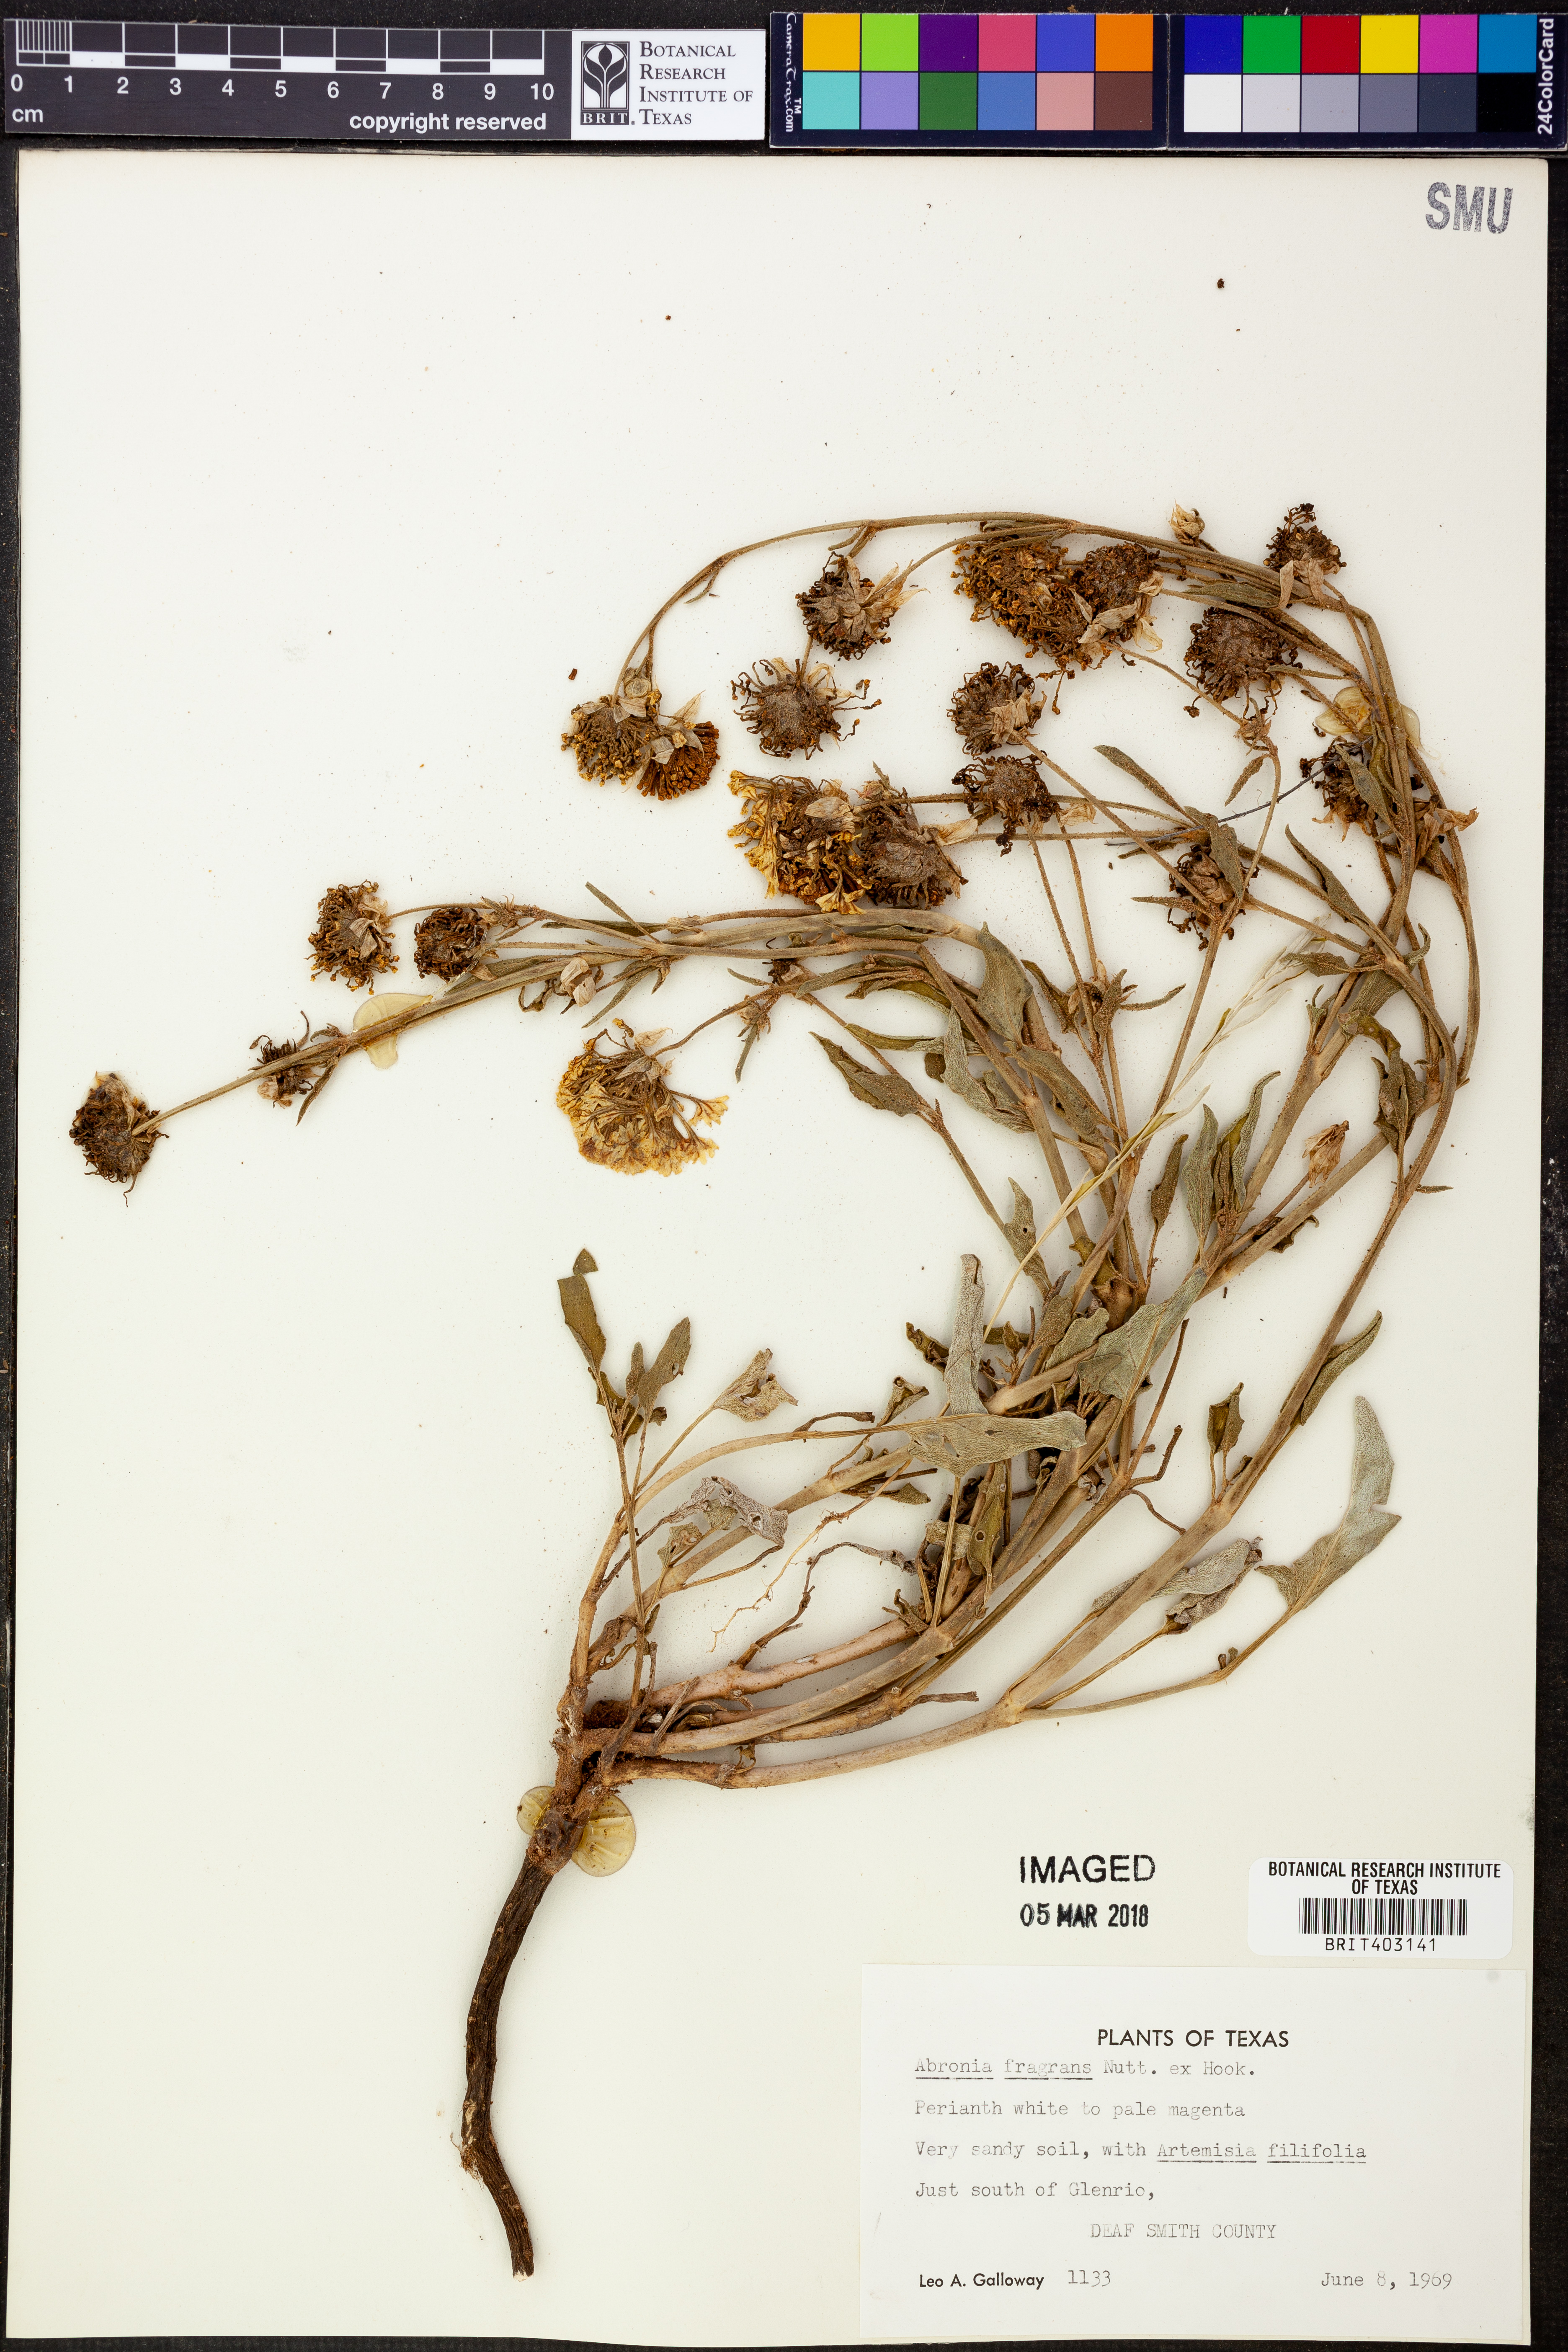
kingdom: Plantae
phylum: Tracheophyta
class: Magnoliopsida
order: Caryophyllales
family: Nyctaginaceae
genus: Abronia
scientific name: Abronia fragrans
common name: Fragrant sand-verbena
